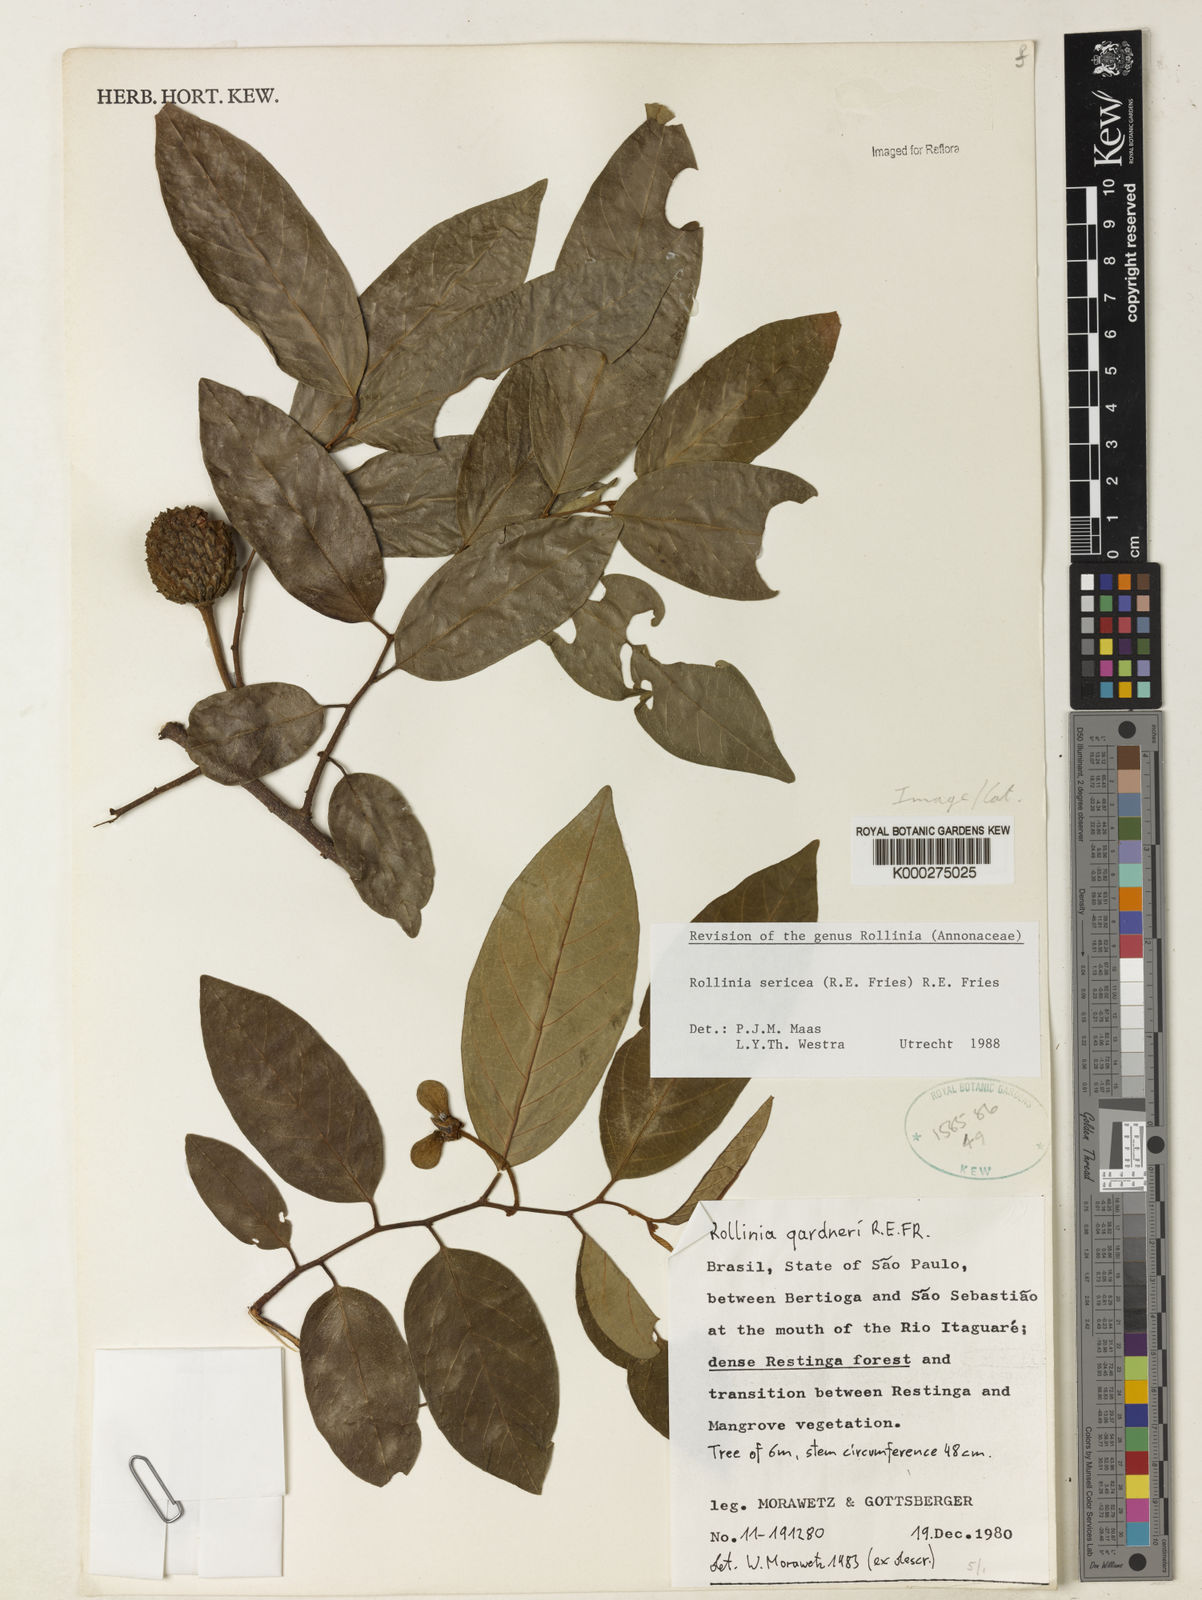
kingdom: Plantae
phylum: Tracheophyta
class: Magnoliopsida
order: Magnoliales
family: Annonaceae
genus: Annona
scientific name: Annona neosericea
